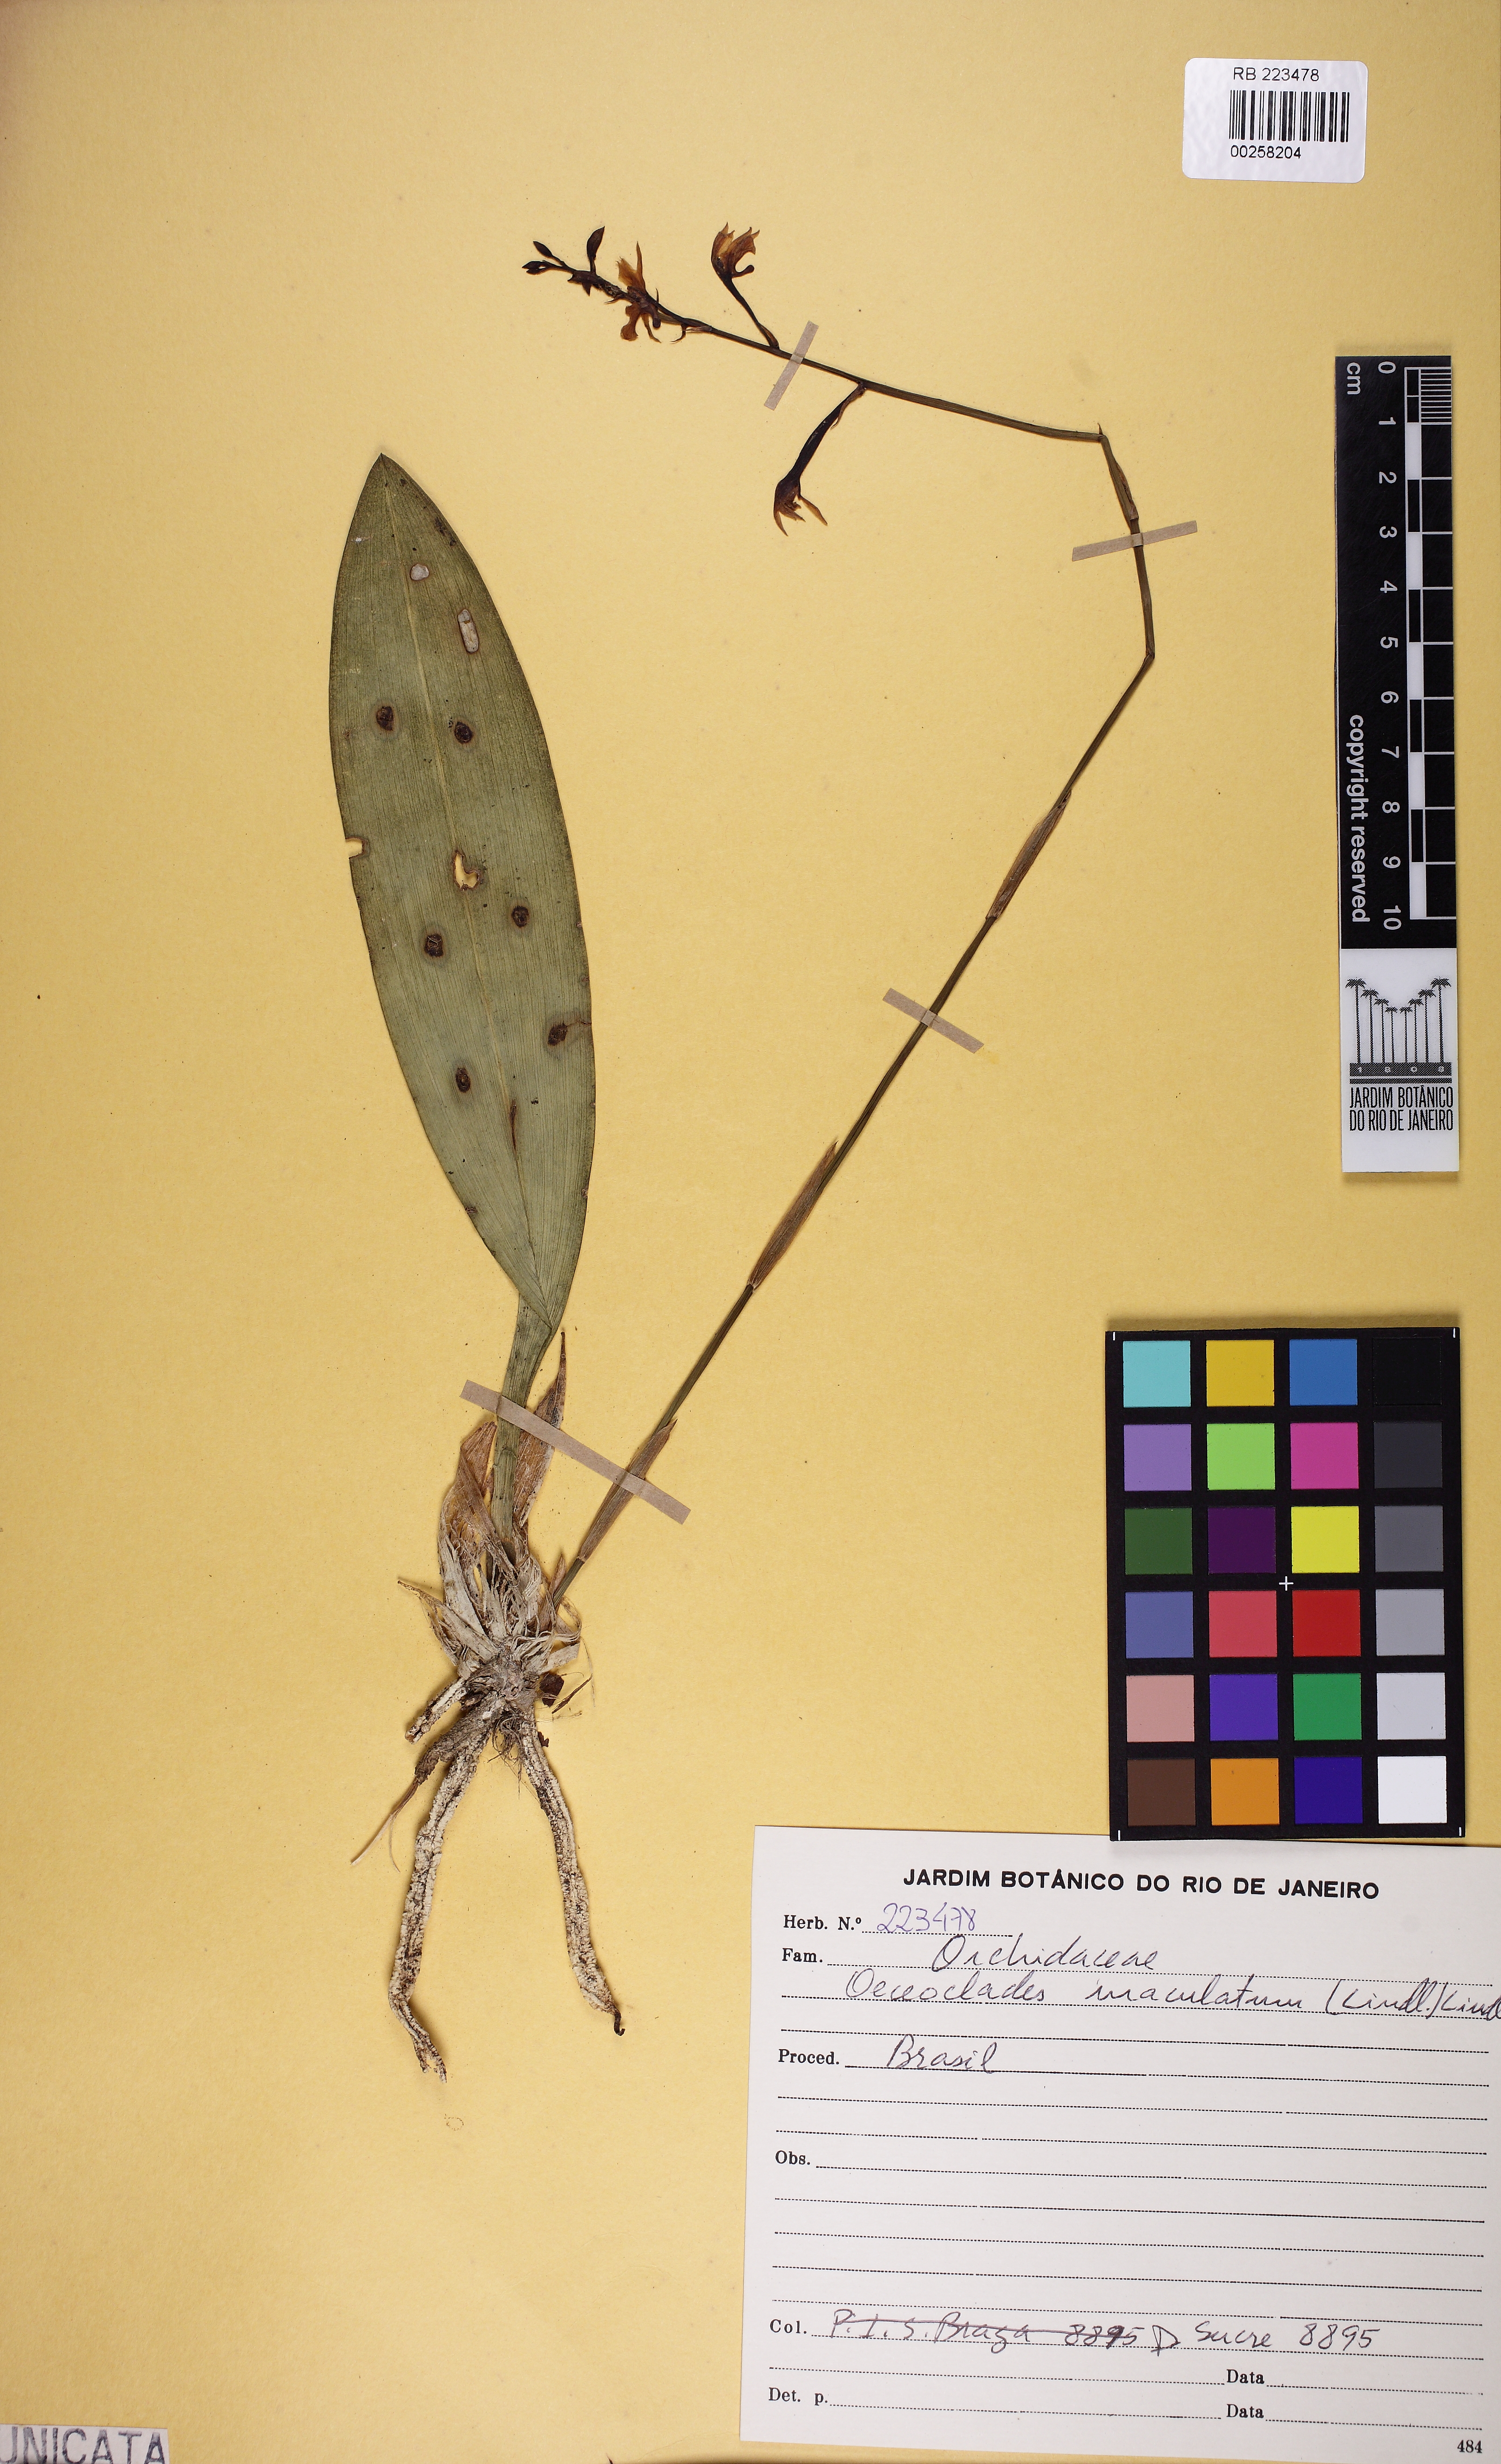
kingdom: Plantae
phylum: Tracheophyta
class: Liliopsida
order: Asparagales
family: Orchidaceae
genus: Eulophia
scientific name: Eulophia maculata
